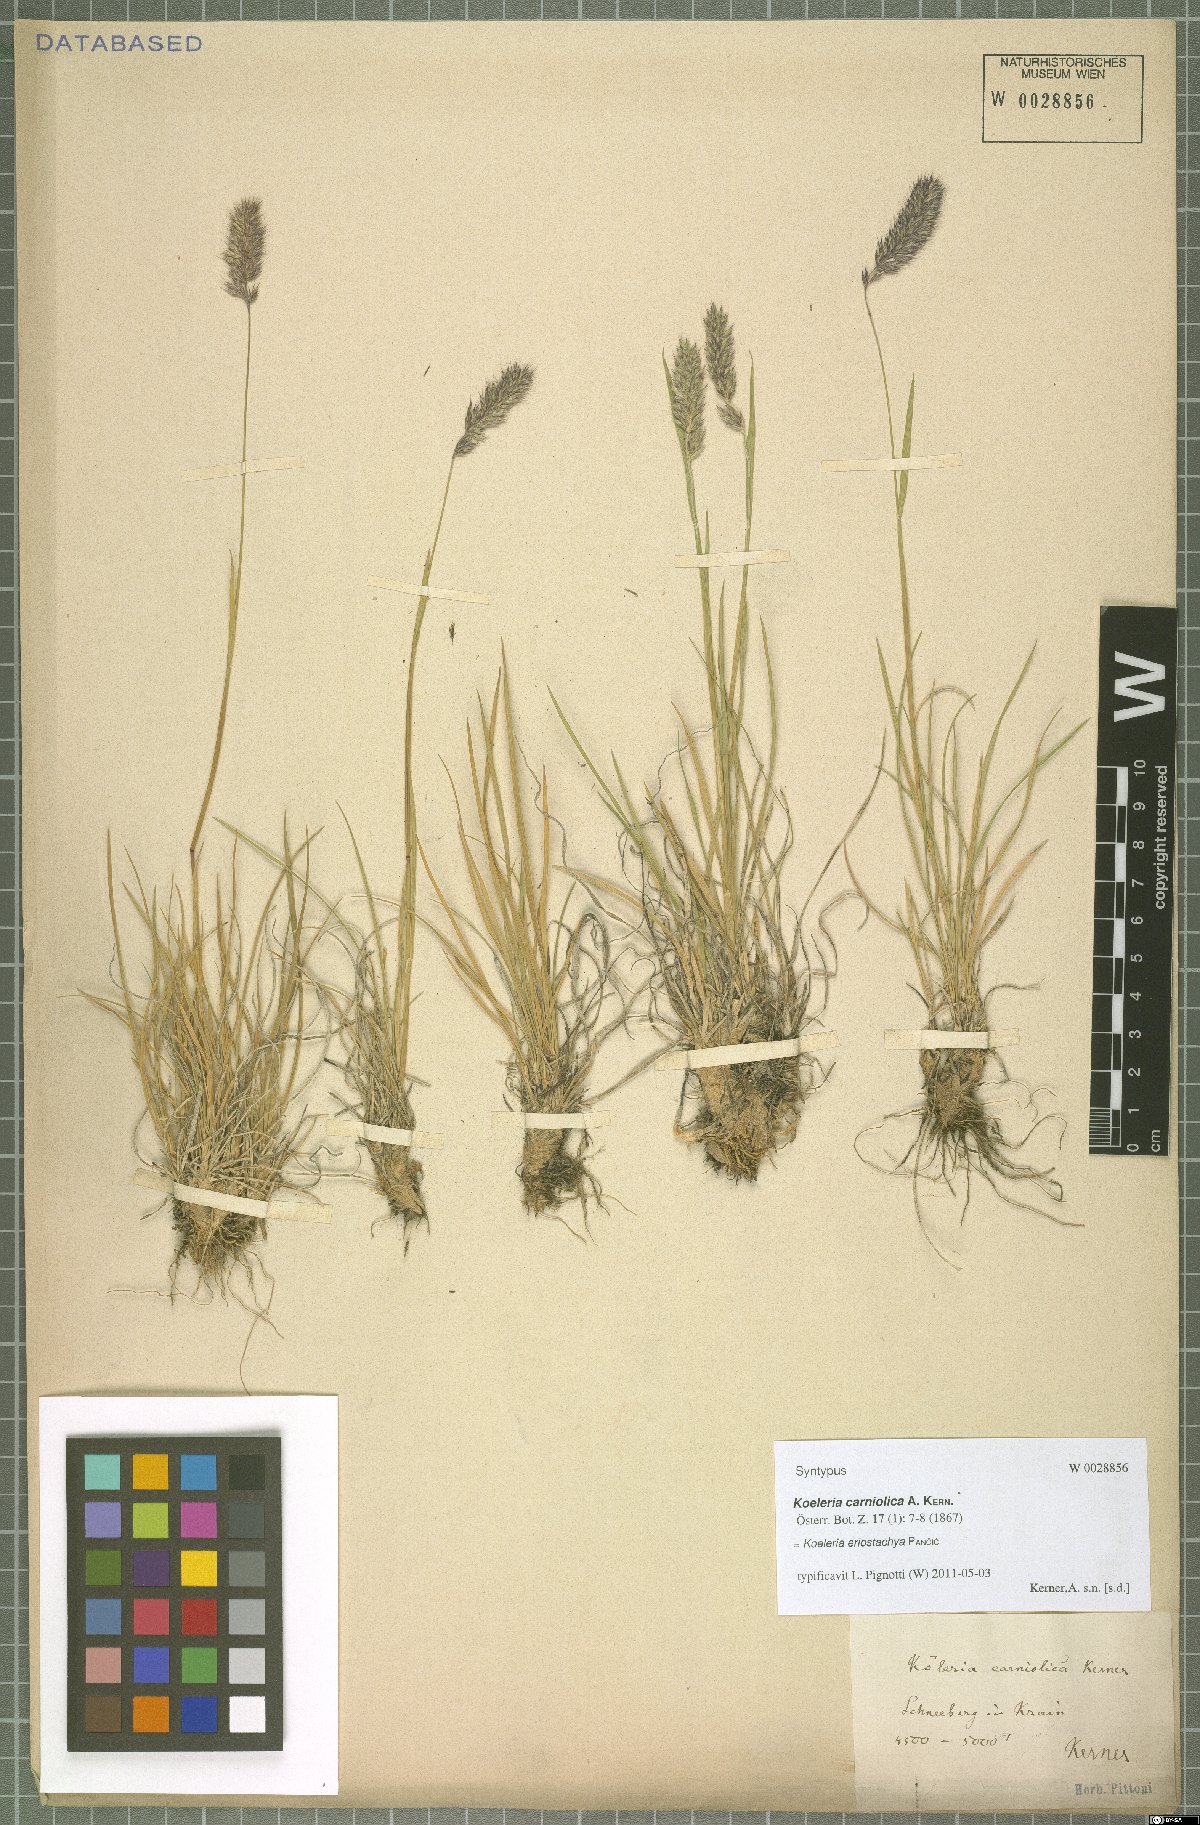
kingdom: Plantae
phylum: Tracheophyta
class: Liliopsida
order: Poales
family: Poaceae
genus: Koeleria
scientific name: Koeleria eriostachya
